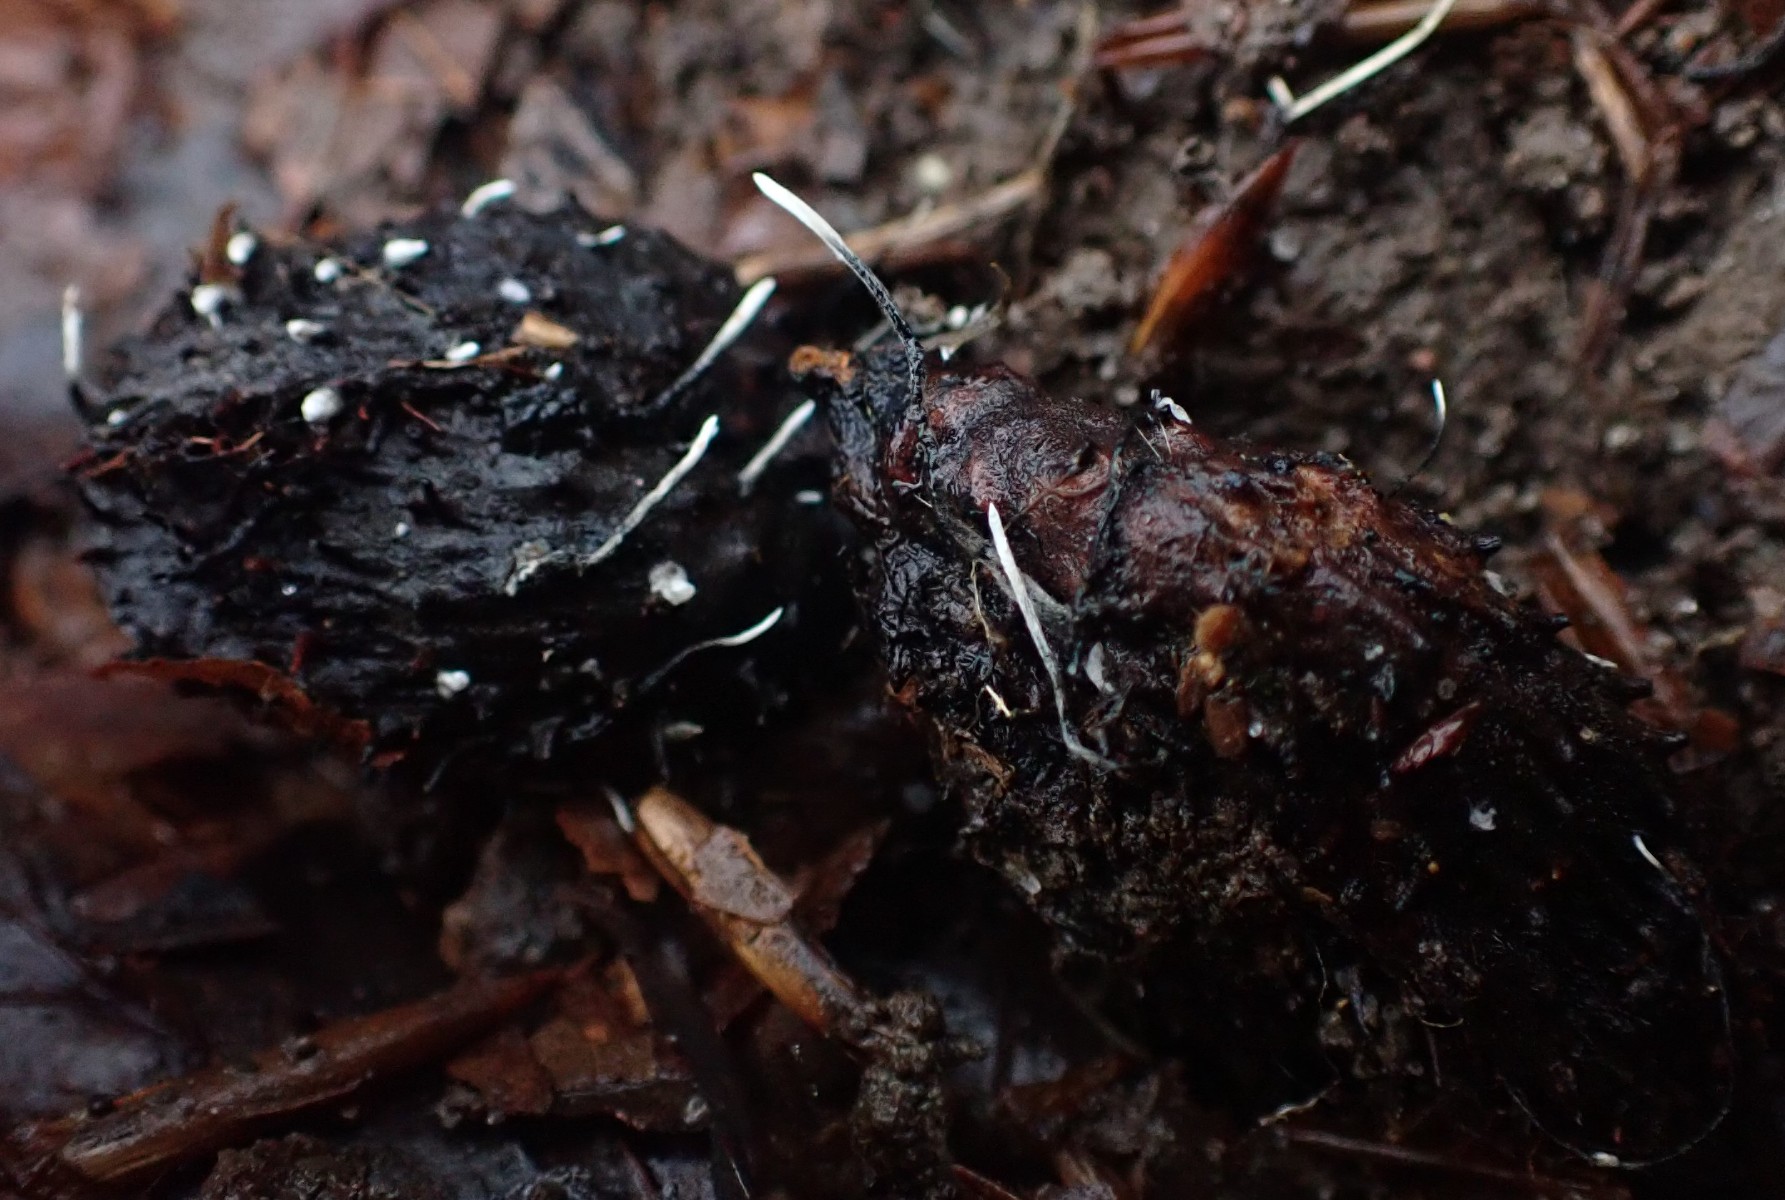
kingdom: Fungi
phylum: Ascomycota
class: Sordariomycetes
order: Xylariales
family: Xylariaceae
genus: Xylaria
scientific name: Xylaria carpophila
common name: bogskål-stødsvamp
